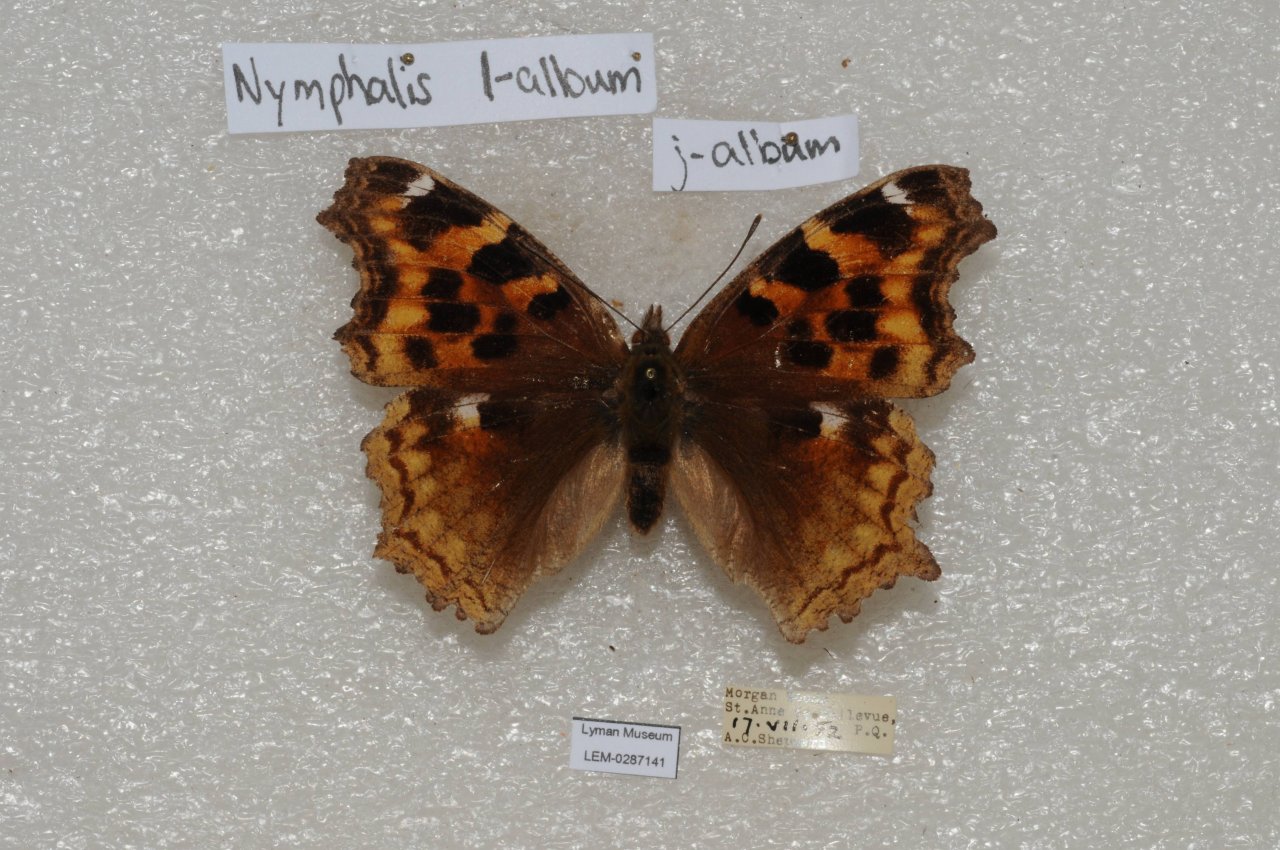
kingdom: Animalia
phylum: Arthropoda
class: Insecta
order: Lepidoptera
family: Nymphalidae
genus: Polygonia
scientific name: Polygonia vaualbum
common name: Compton Tortoiseshell
